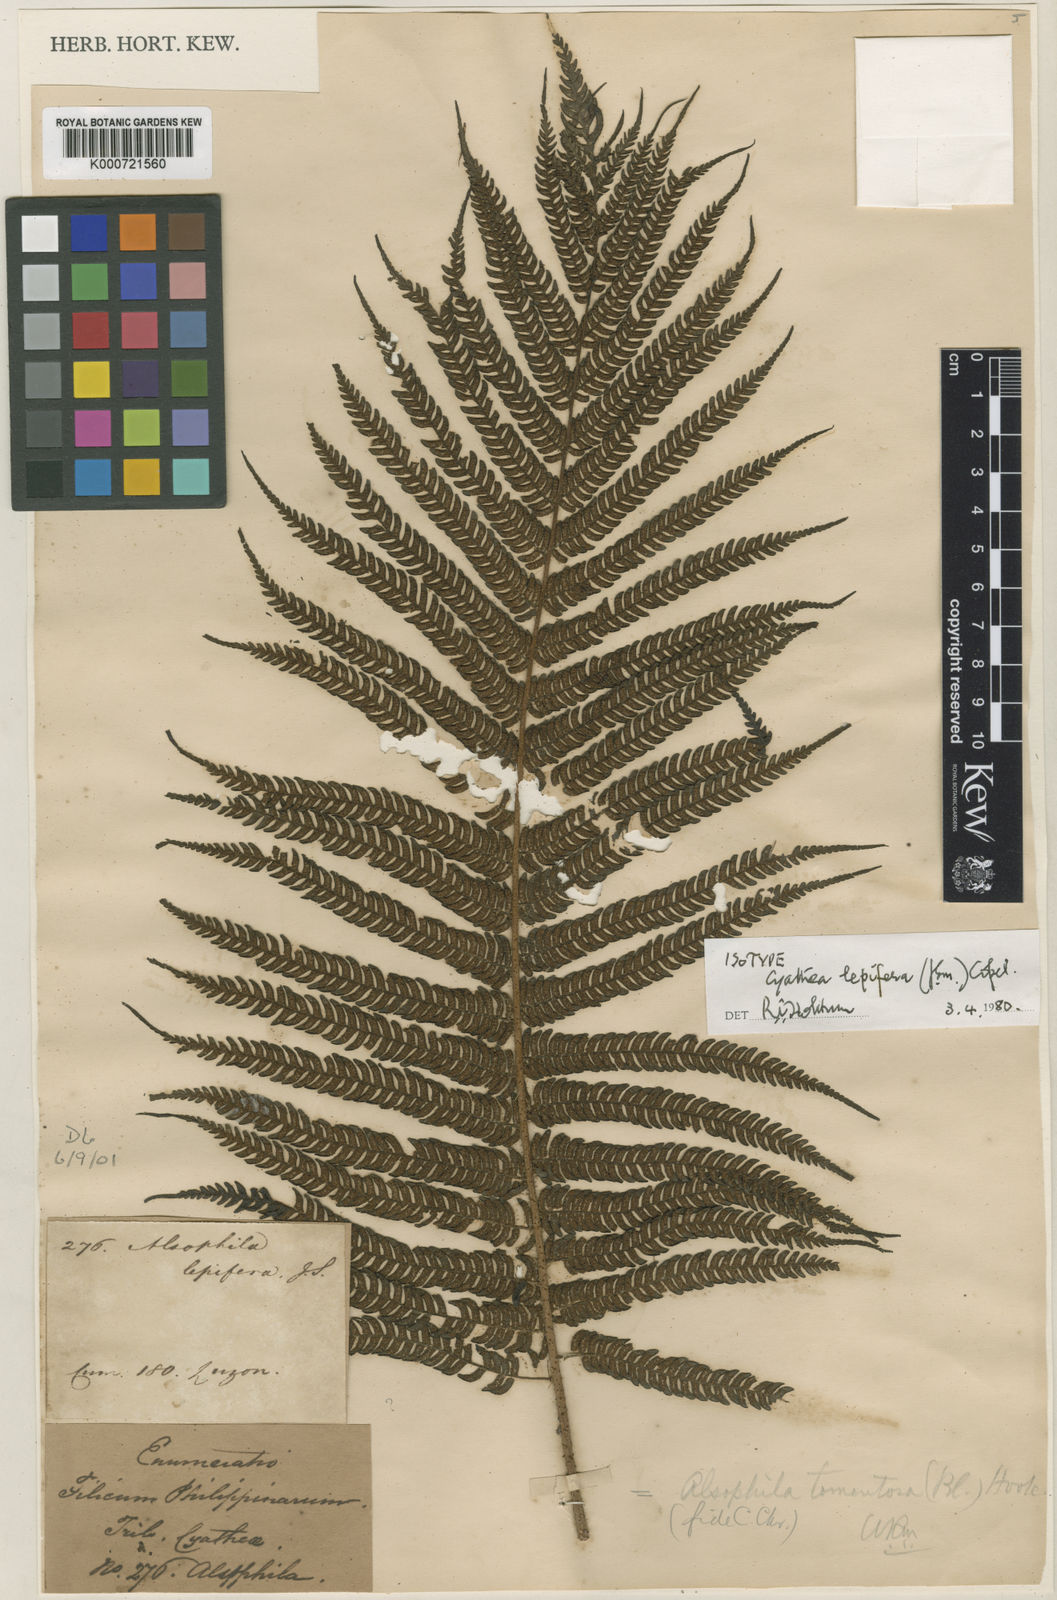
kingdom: Plantae
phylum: Tracheophyta
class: Polypodiopsida
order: Cyatheales
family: Cyatheaceae
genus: Alsophila
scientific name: Alsophila lepifera
